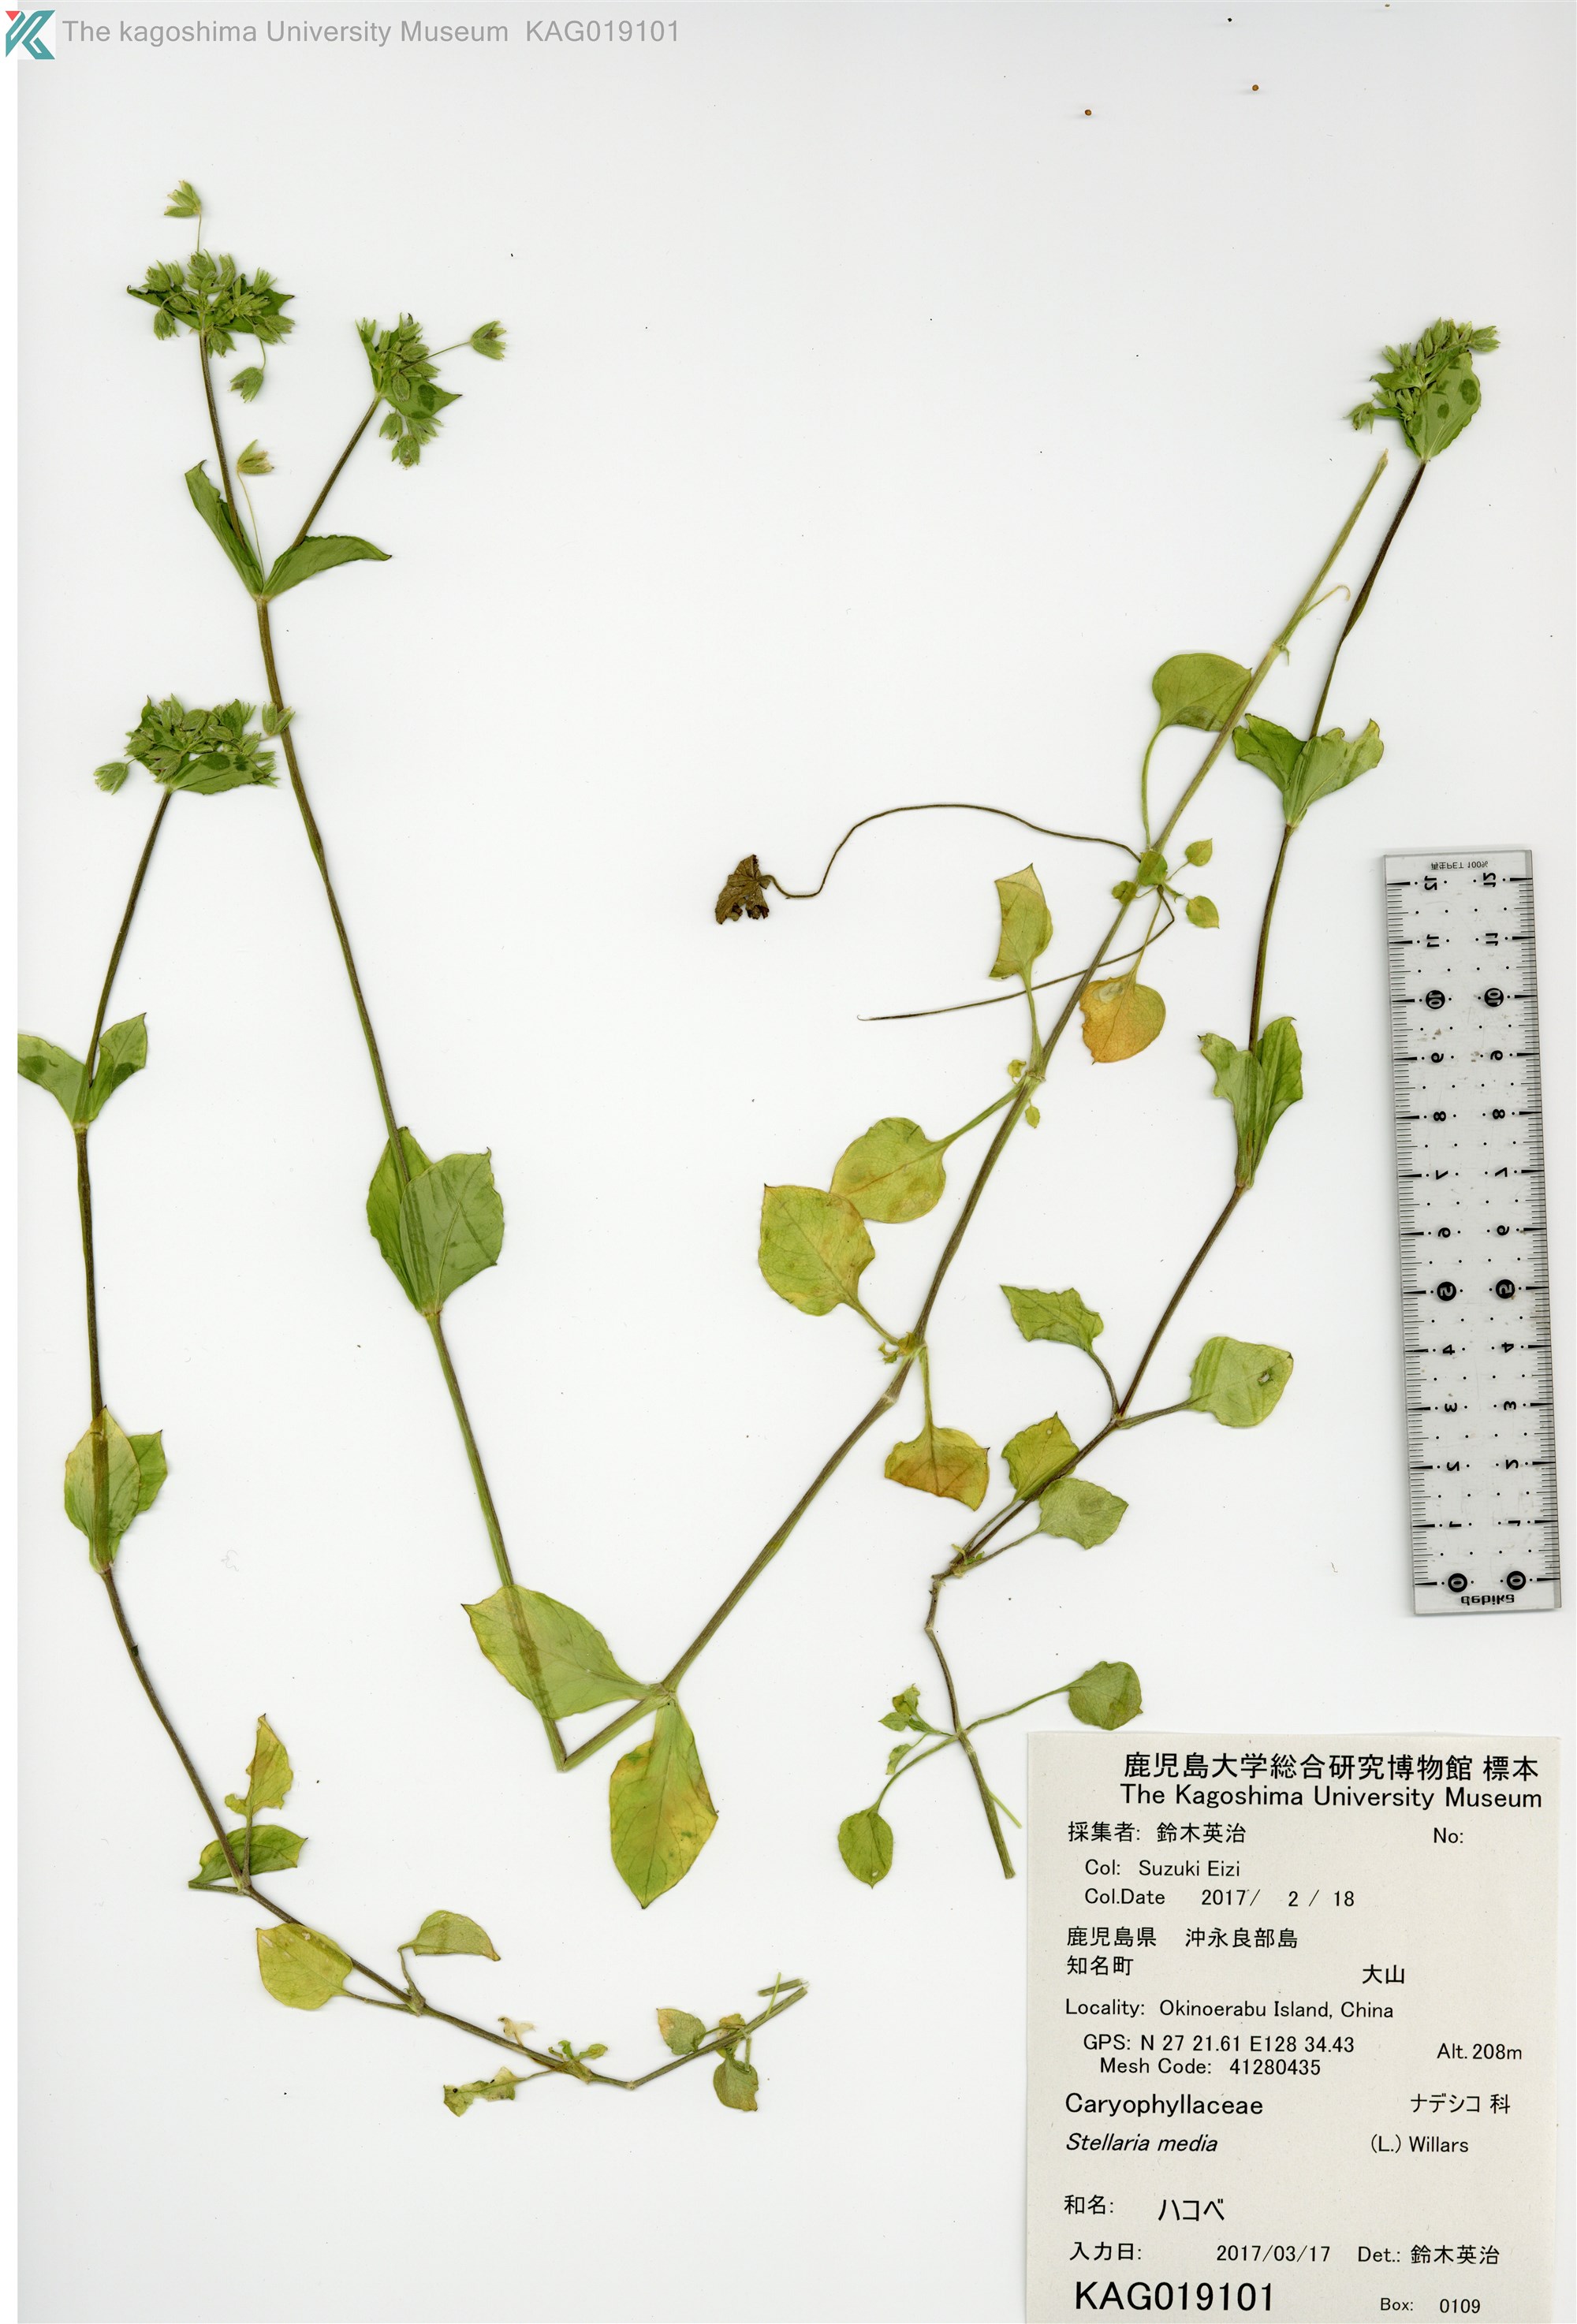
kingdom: Plantae
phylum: Tracheophyta
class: Magnoliopsida
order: Caryophyllales
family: Caryophyllaceae
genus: Stellaria
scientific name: Stellaria media
